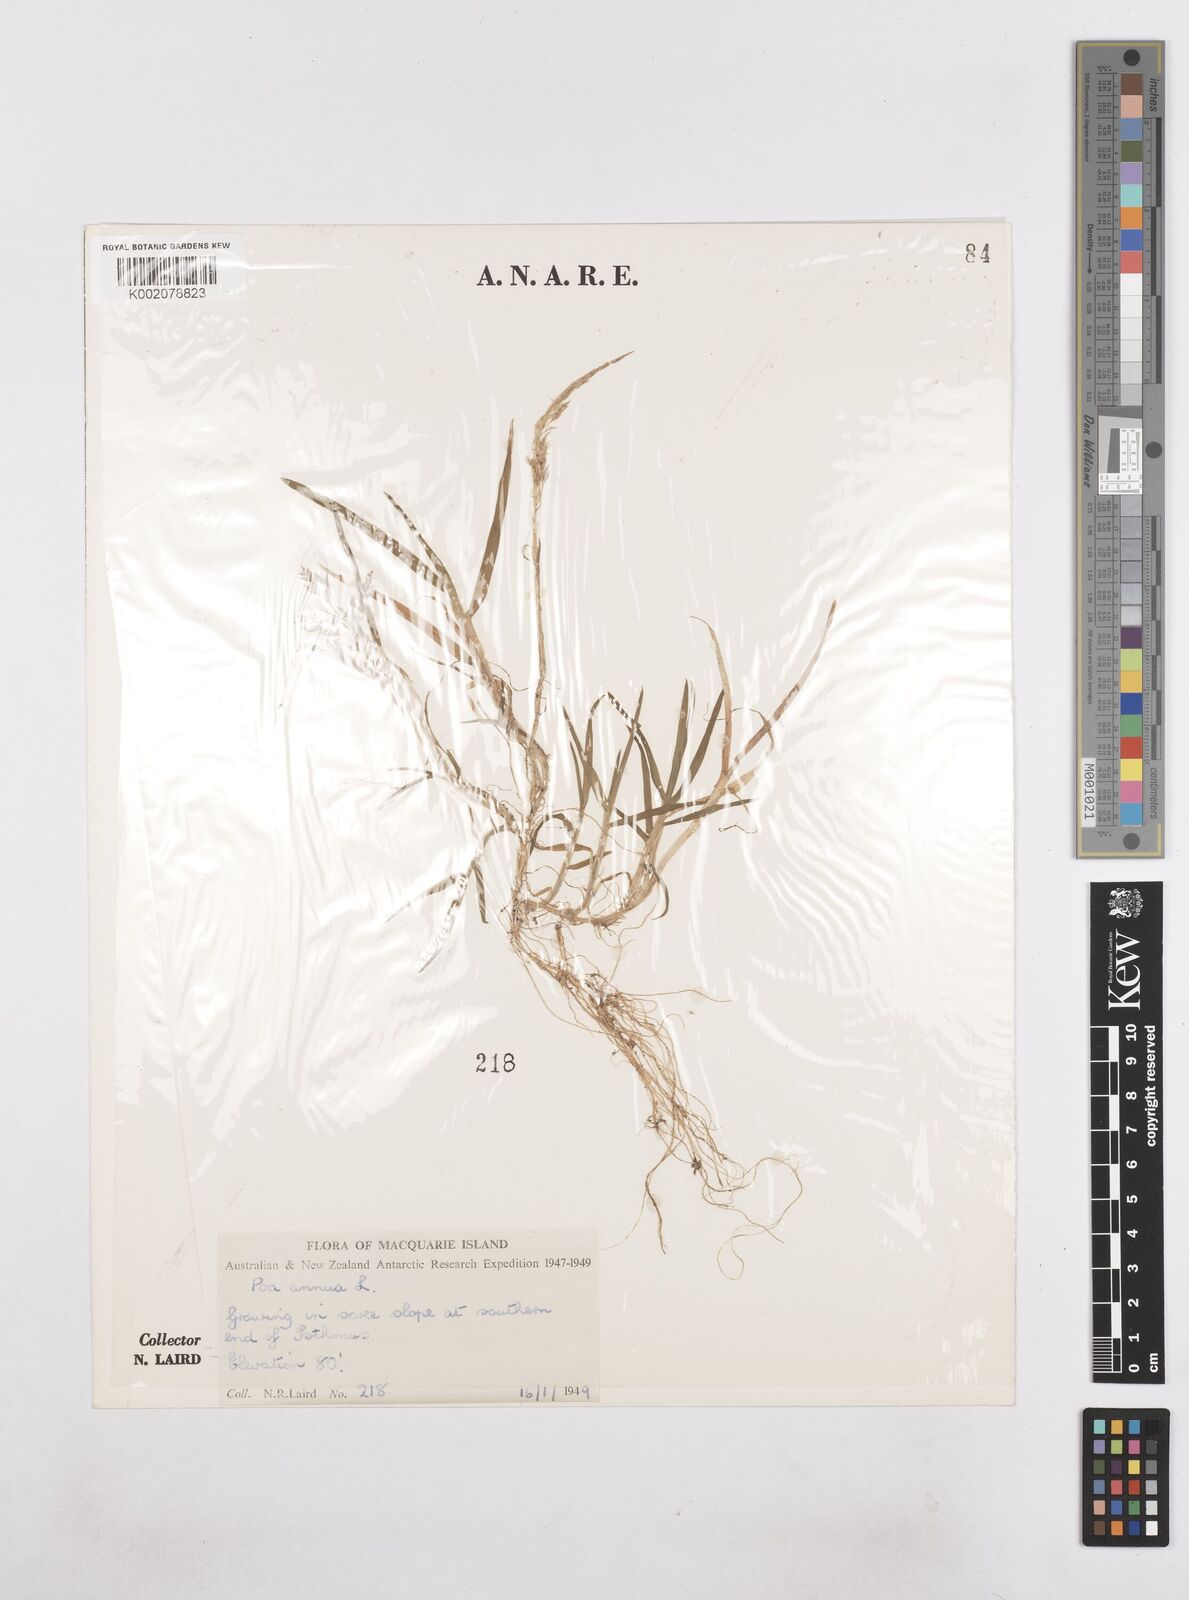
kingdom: Plantae
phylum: Tracheophyta
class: Liliopsida
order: Poales
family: Poaceae
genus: Poa
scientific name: Poa annua
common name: Annual bluegrass
